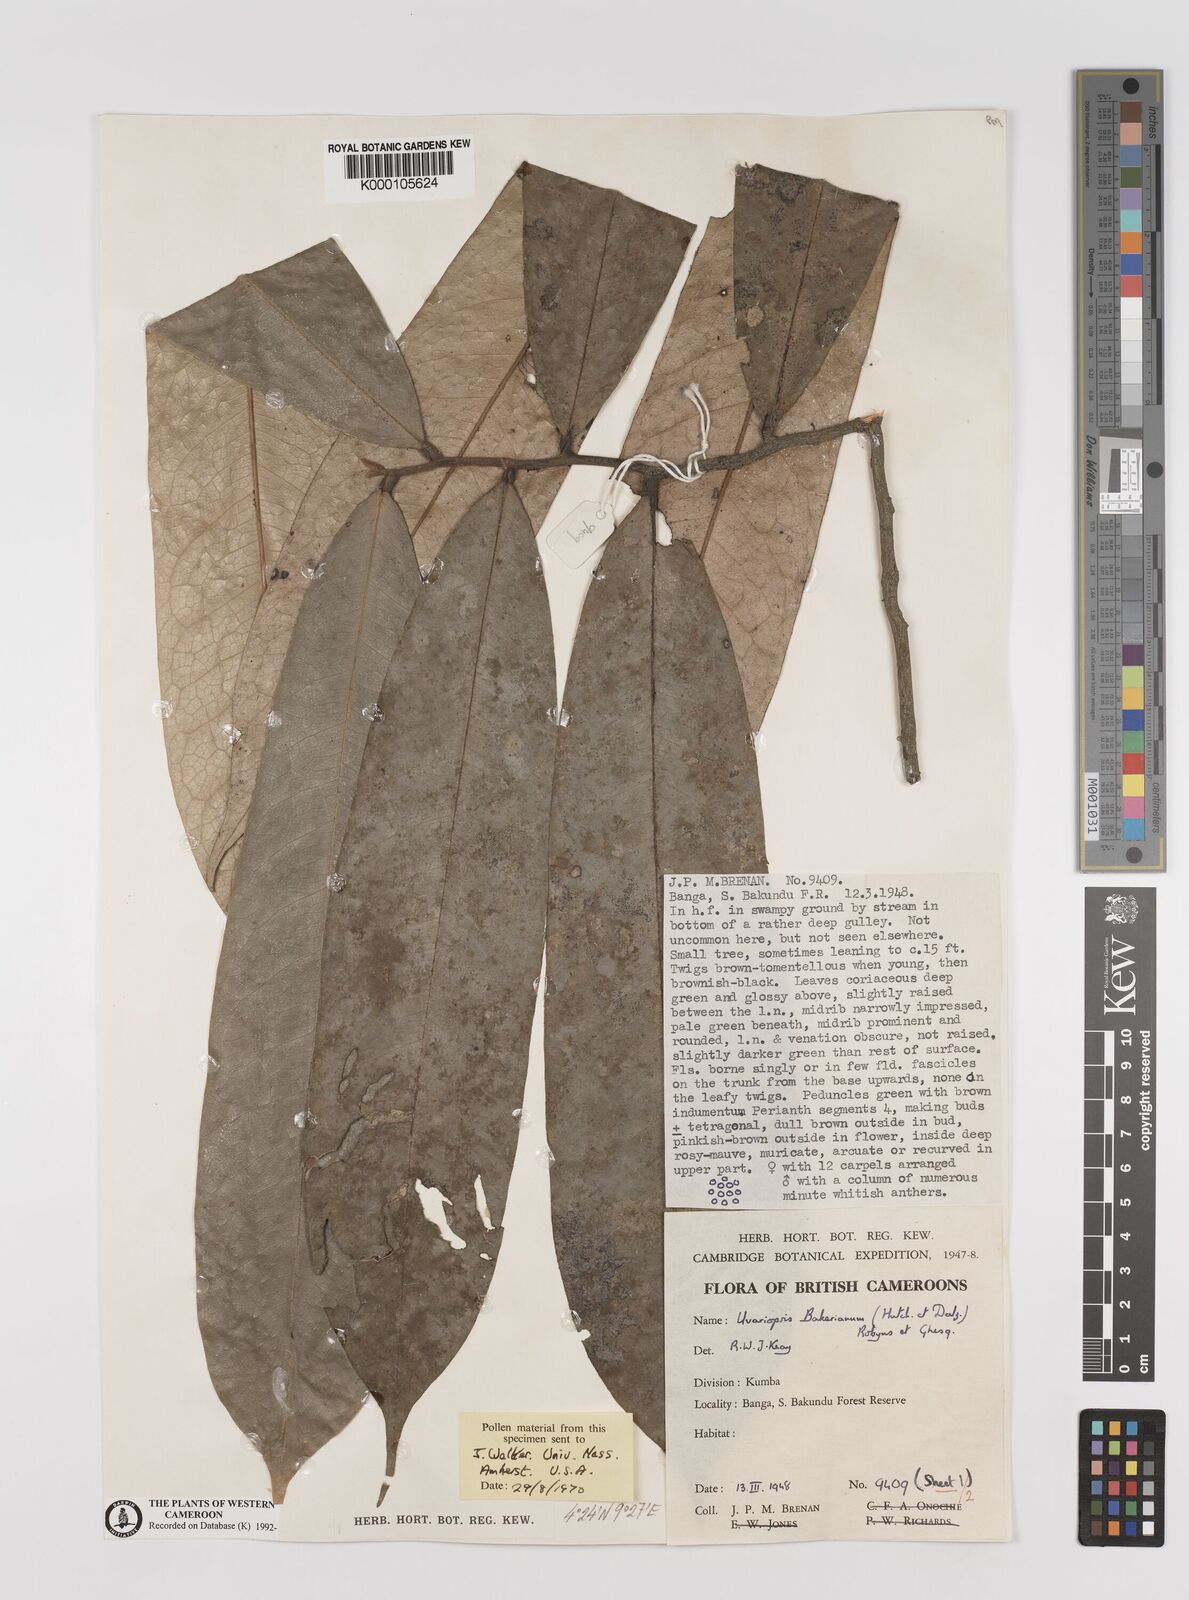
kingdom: Plantae
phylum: Tracheophyta
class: Magnoliopsida
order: Magnoliales
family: Annonaceae
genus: Uvariopsis
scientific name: Uvariopsis bakeriana
